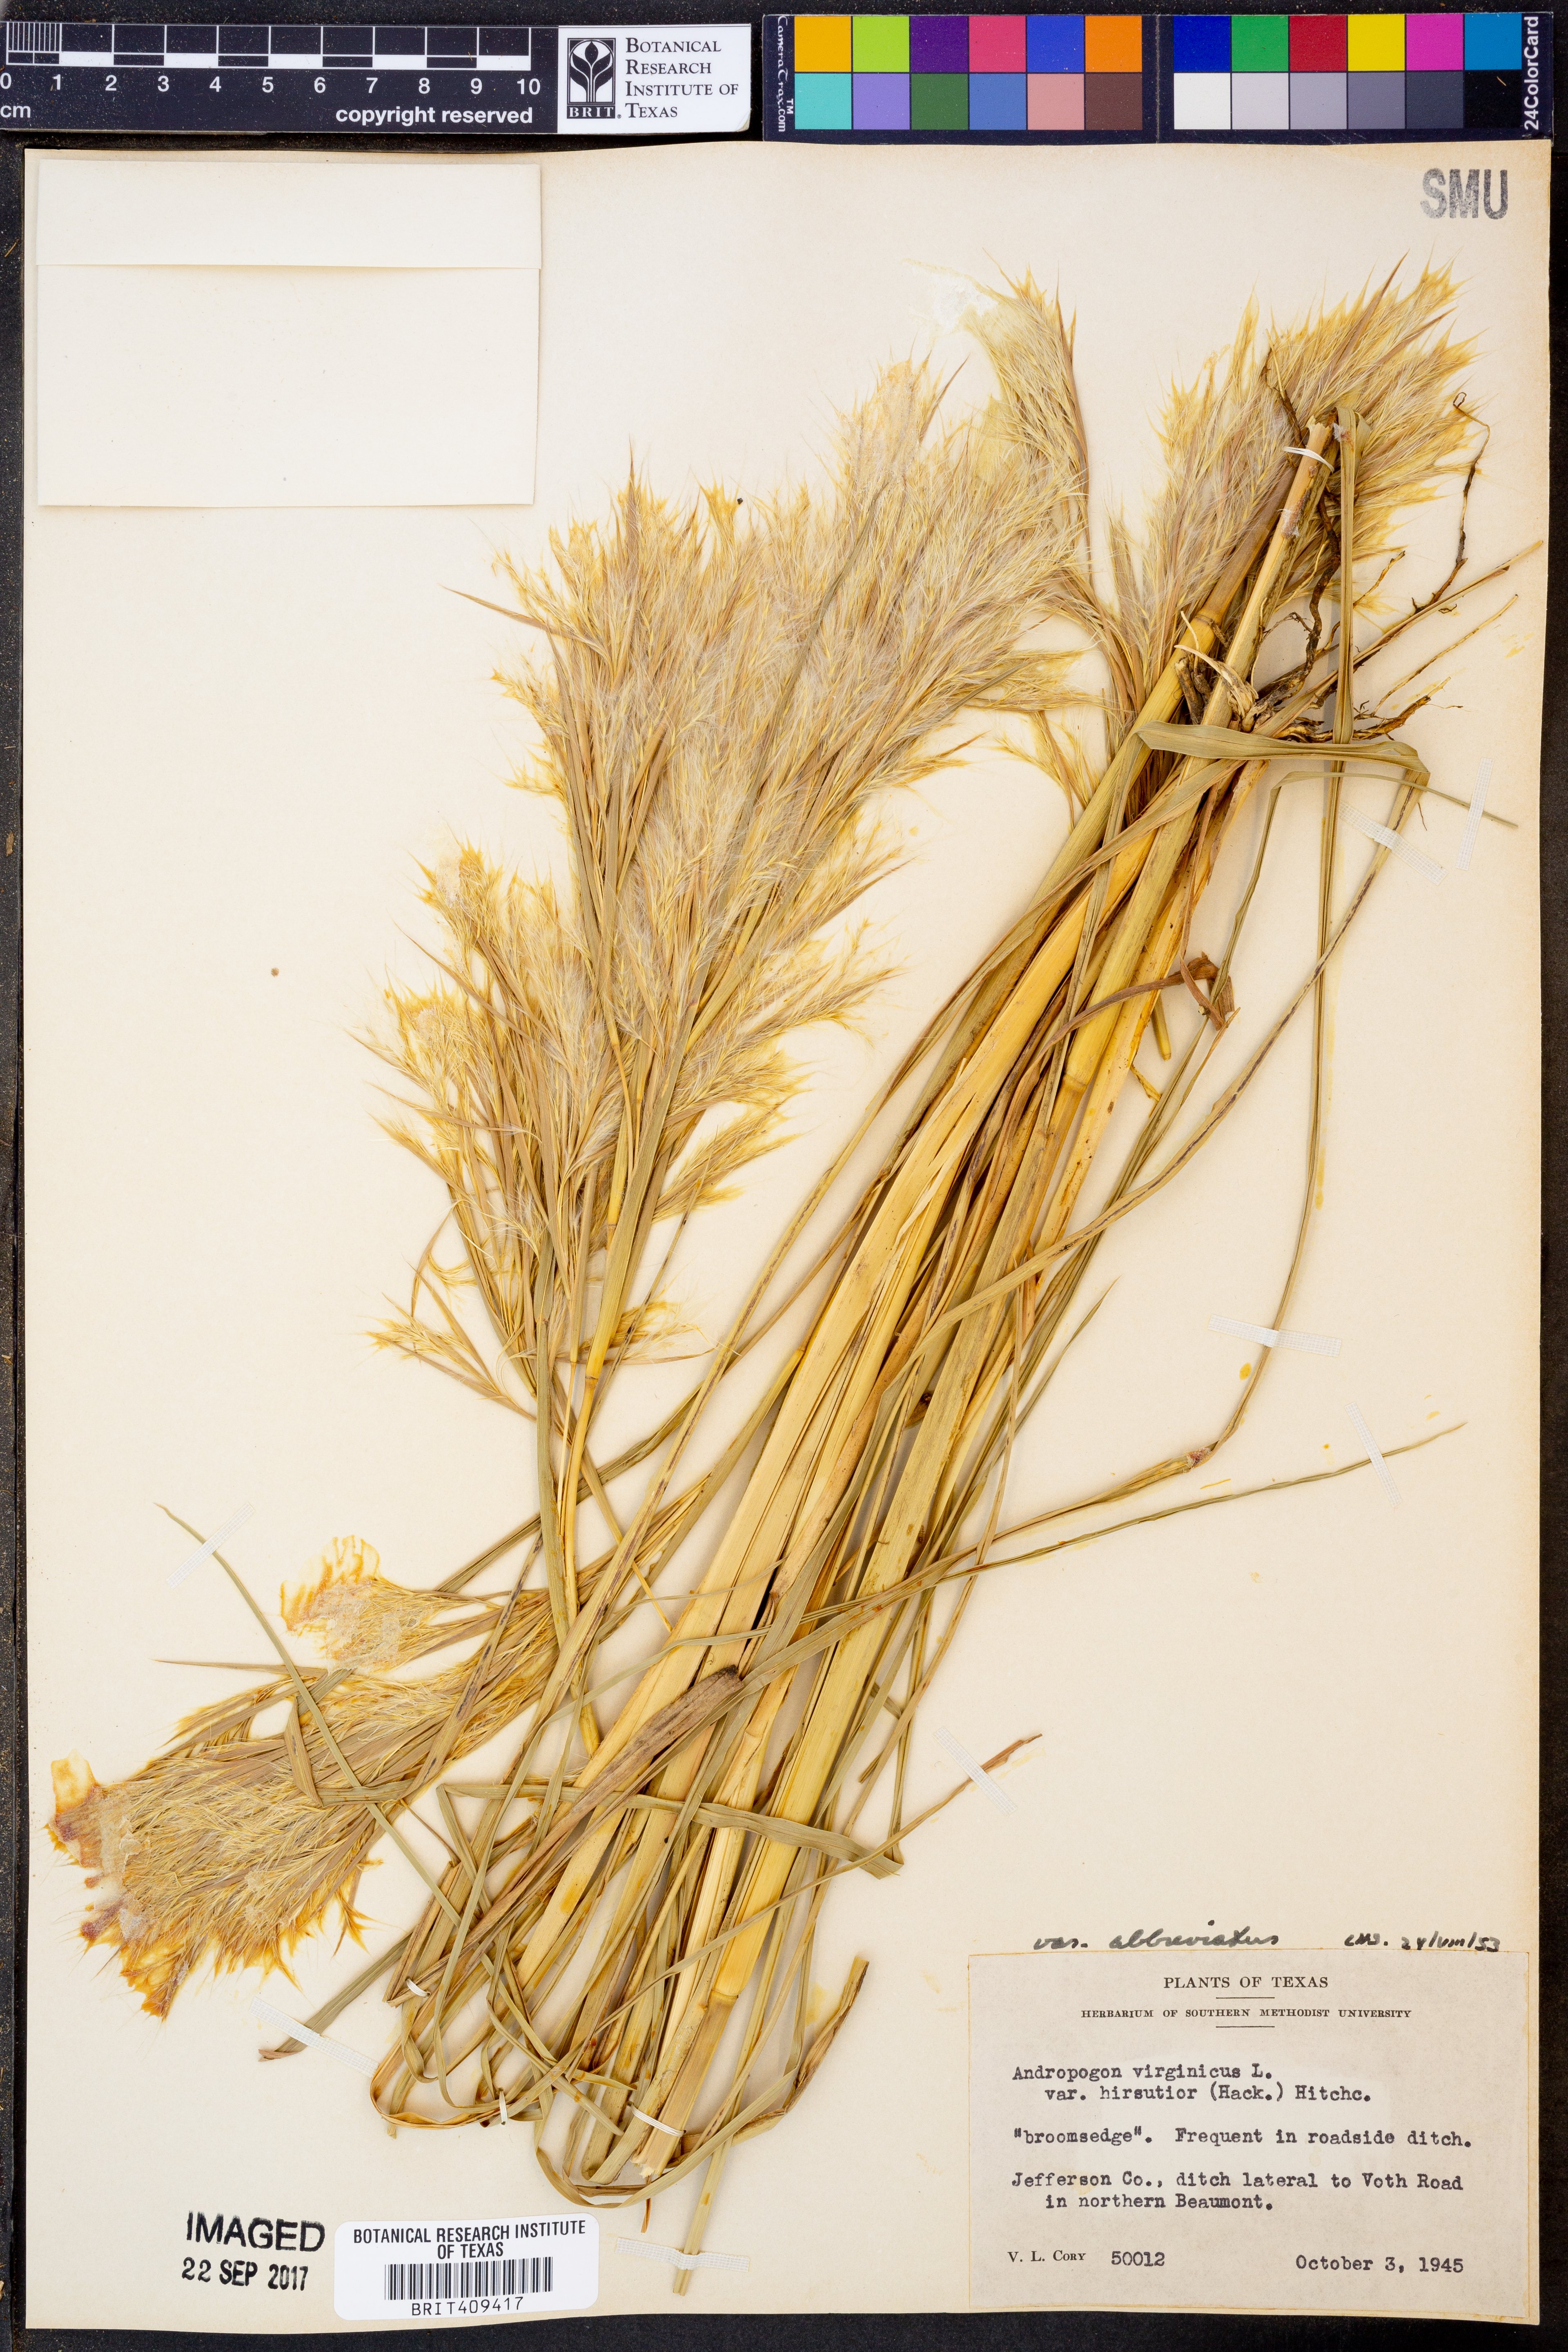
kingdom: Plantae
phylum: Tracheophyta
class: Liliopsida
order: Poales
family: Poaceae
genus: Andropogon
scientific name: Andropogon hirsutior
